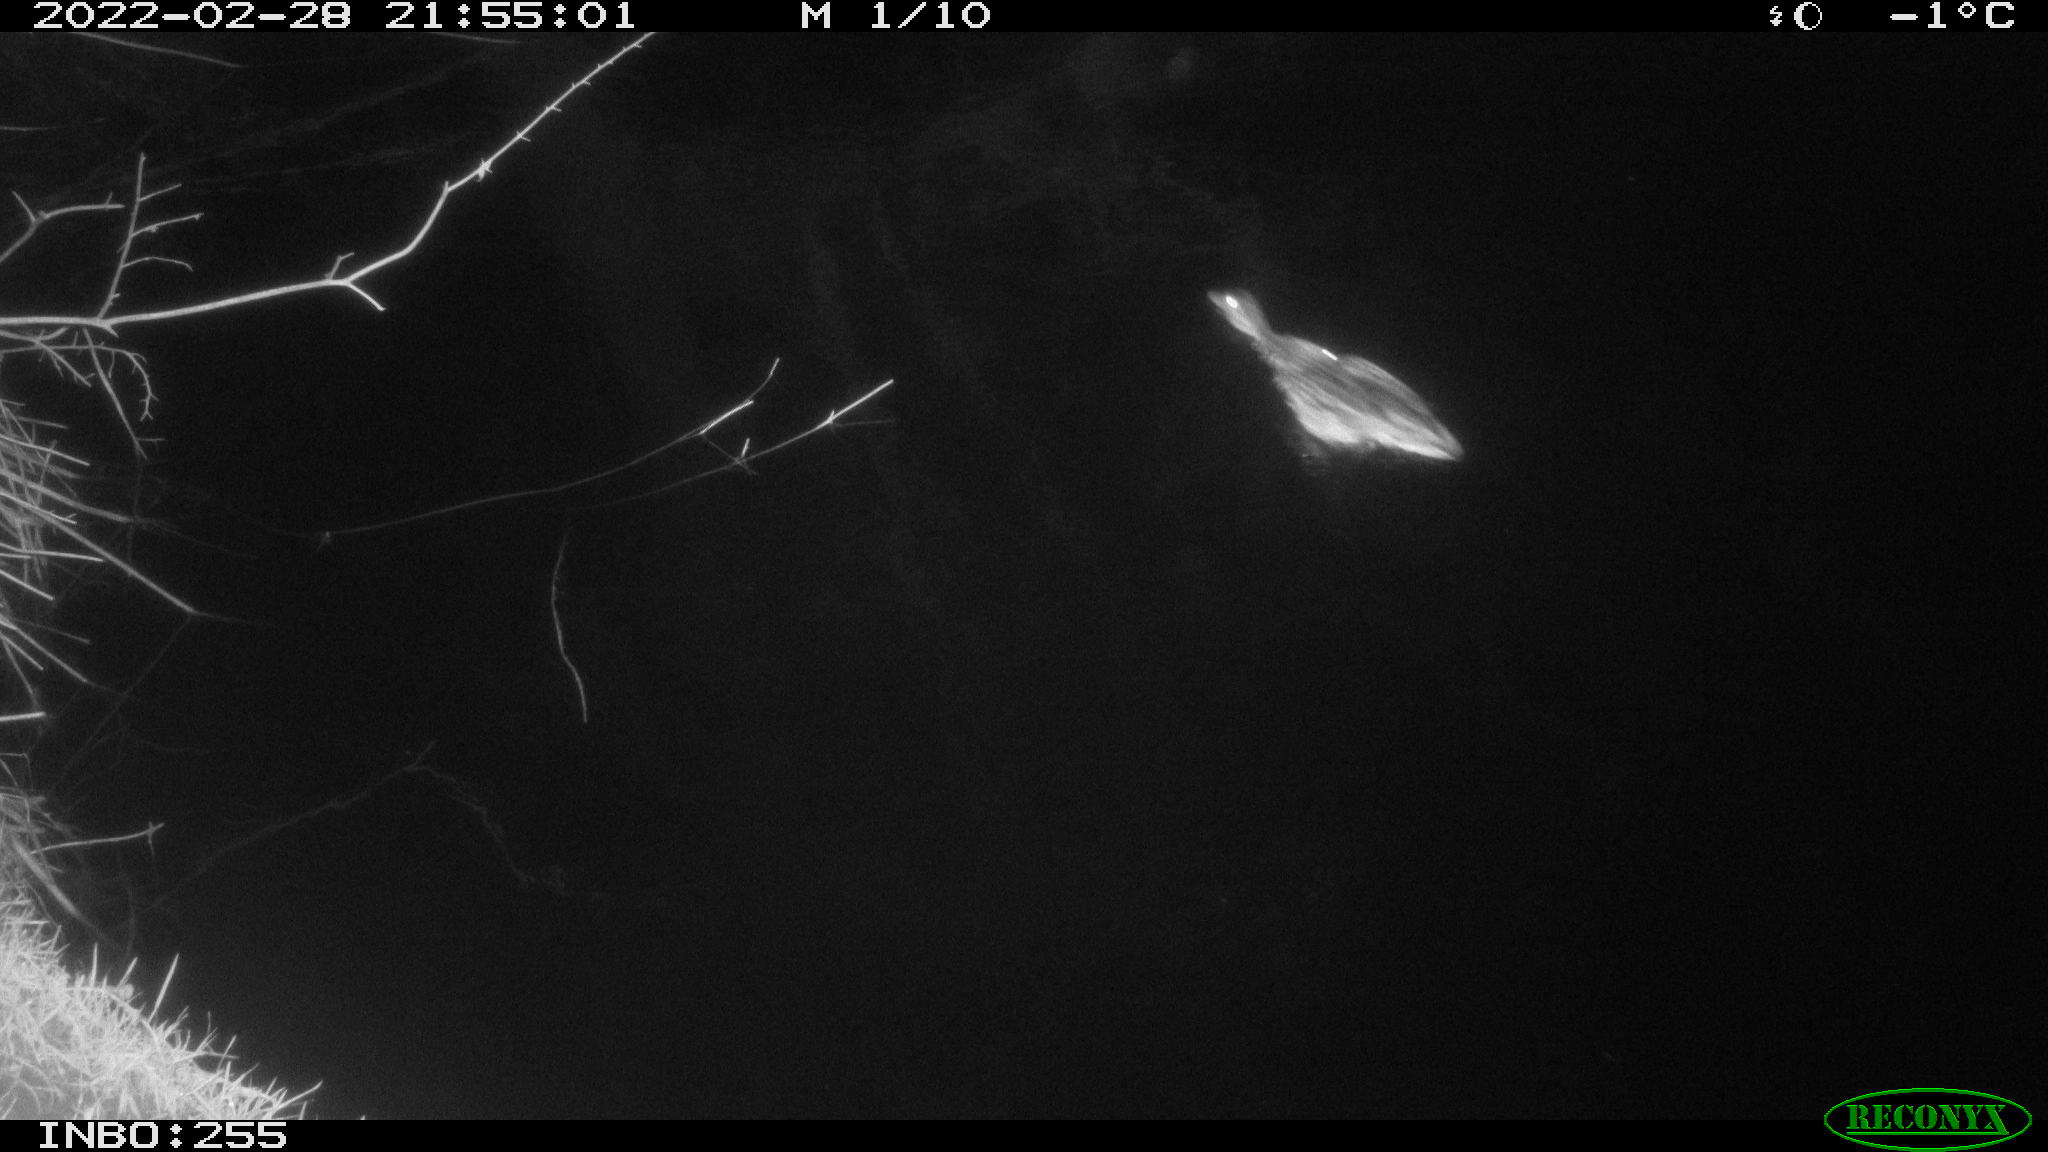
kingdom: Animalia
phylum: Chordata
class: Aves
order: Anseriformes
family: Anatidae
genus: Anas
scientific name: Anas platyrhynchos
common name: Mallard
